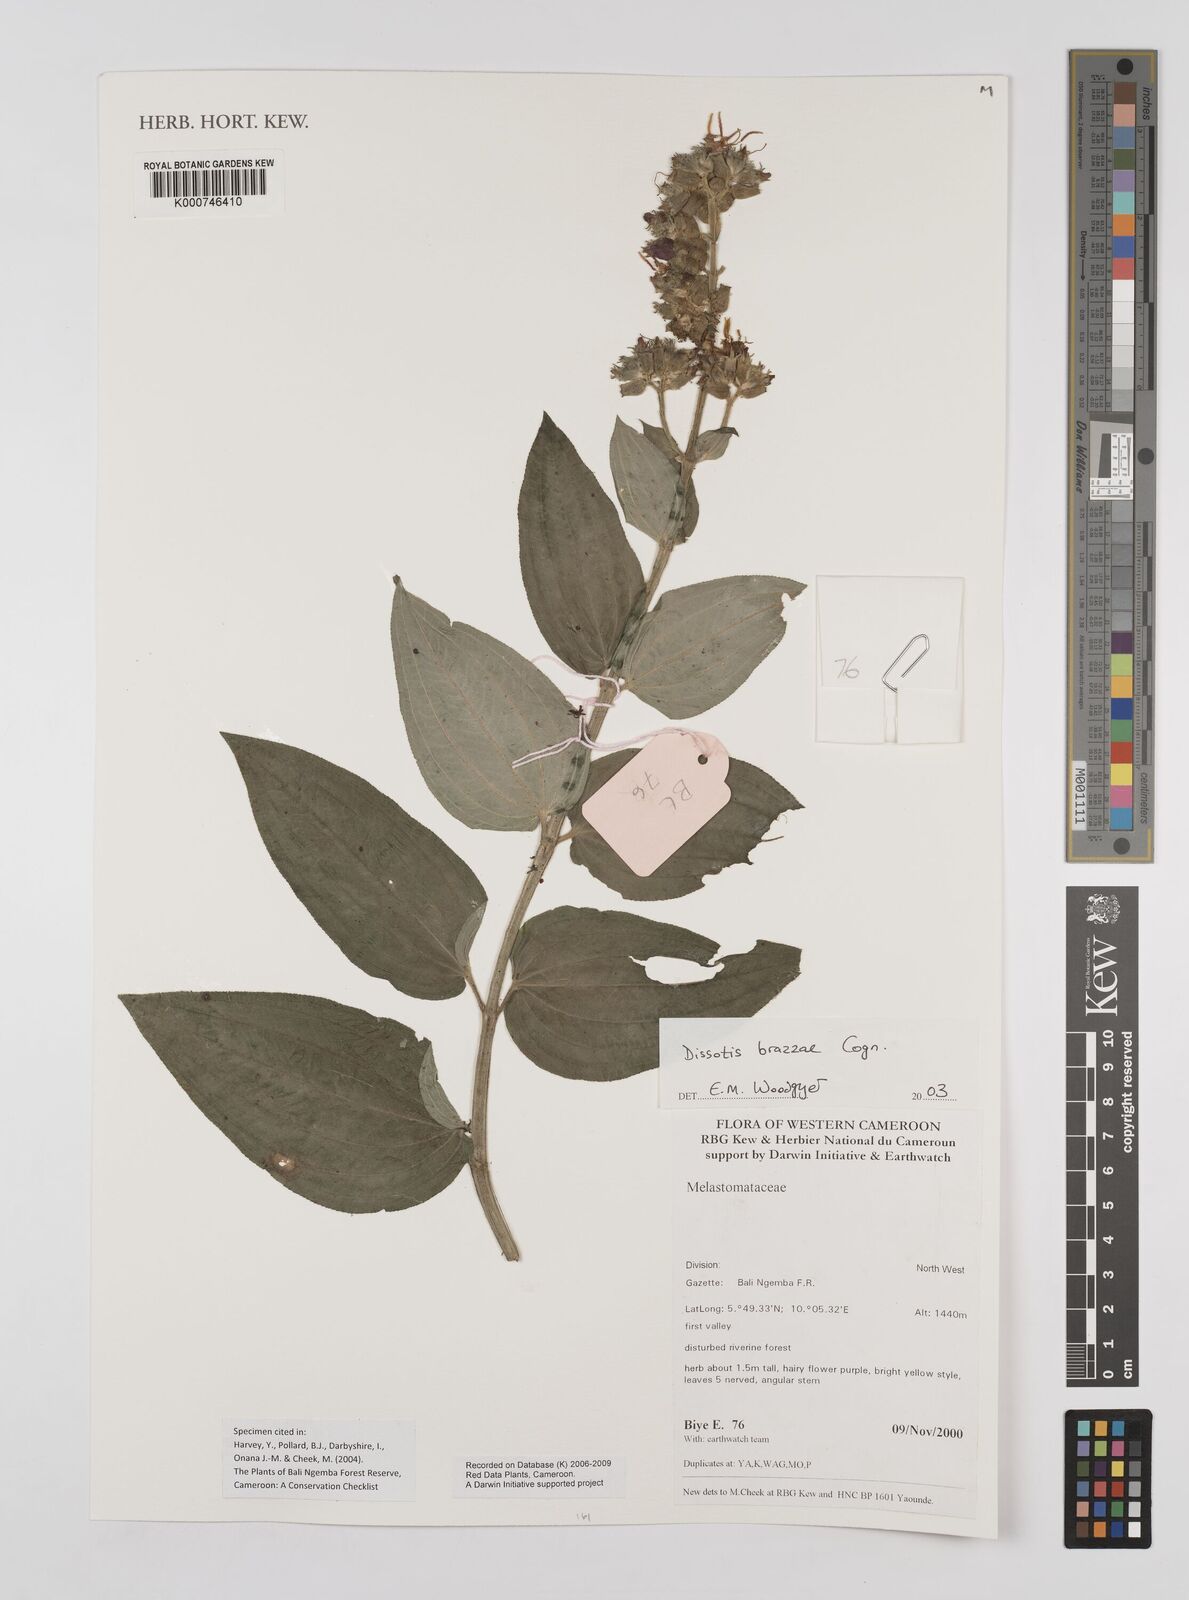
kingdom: Plantae
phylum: Tracheophyta
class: Magnoliopsida
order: Myrtales
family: Melastomataceae
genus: Dupineta
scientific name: Dupineta brazzae
